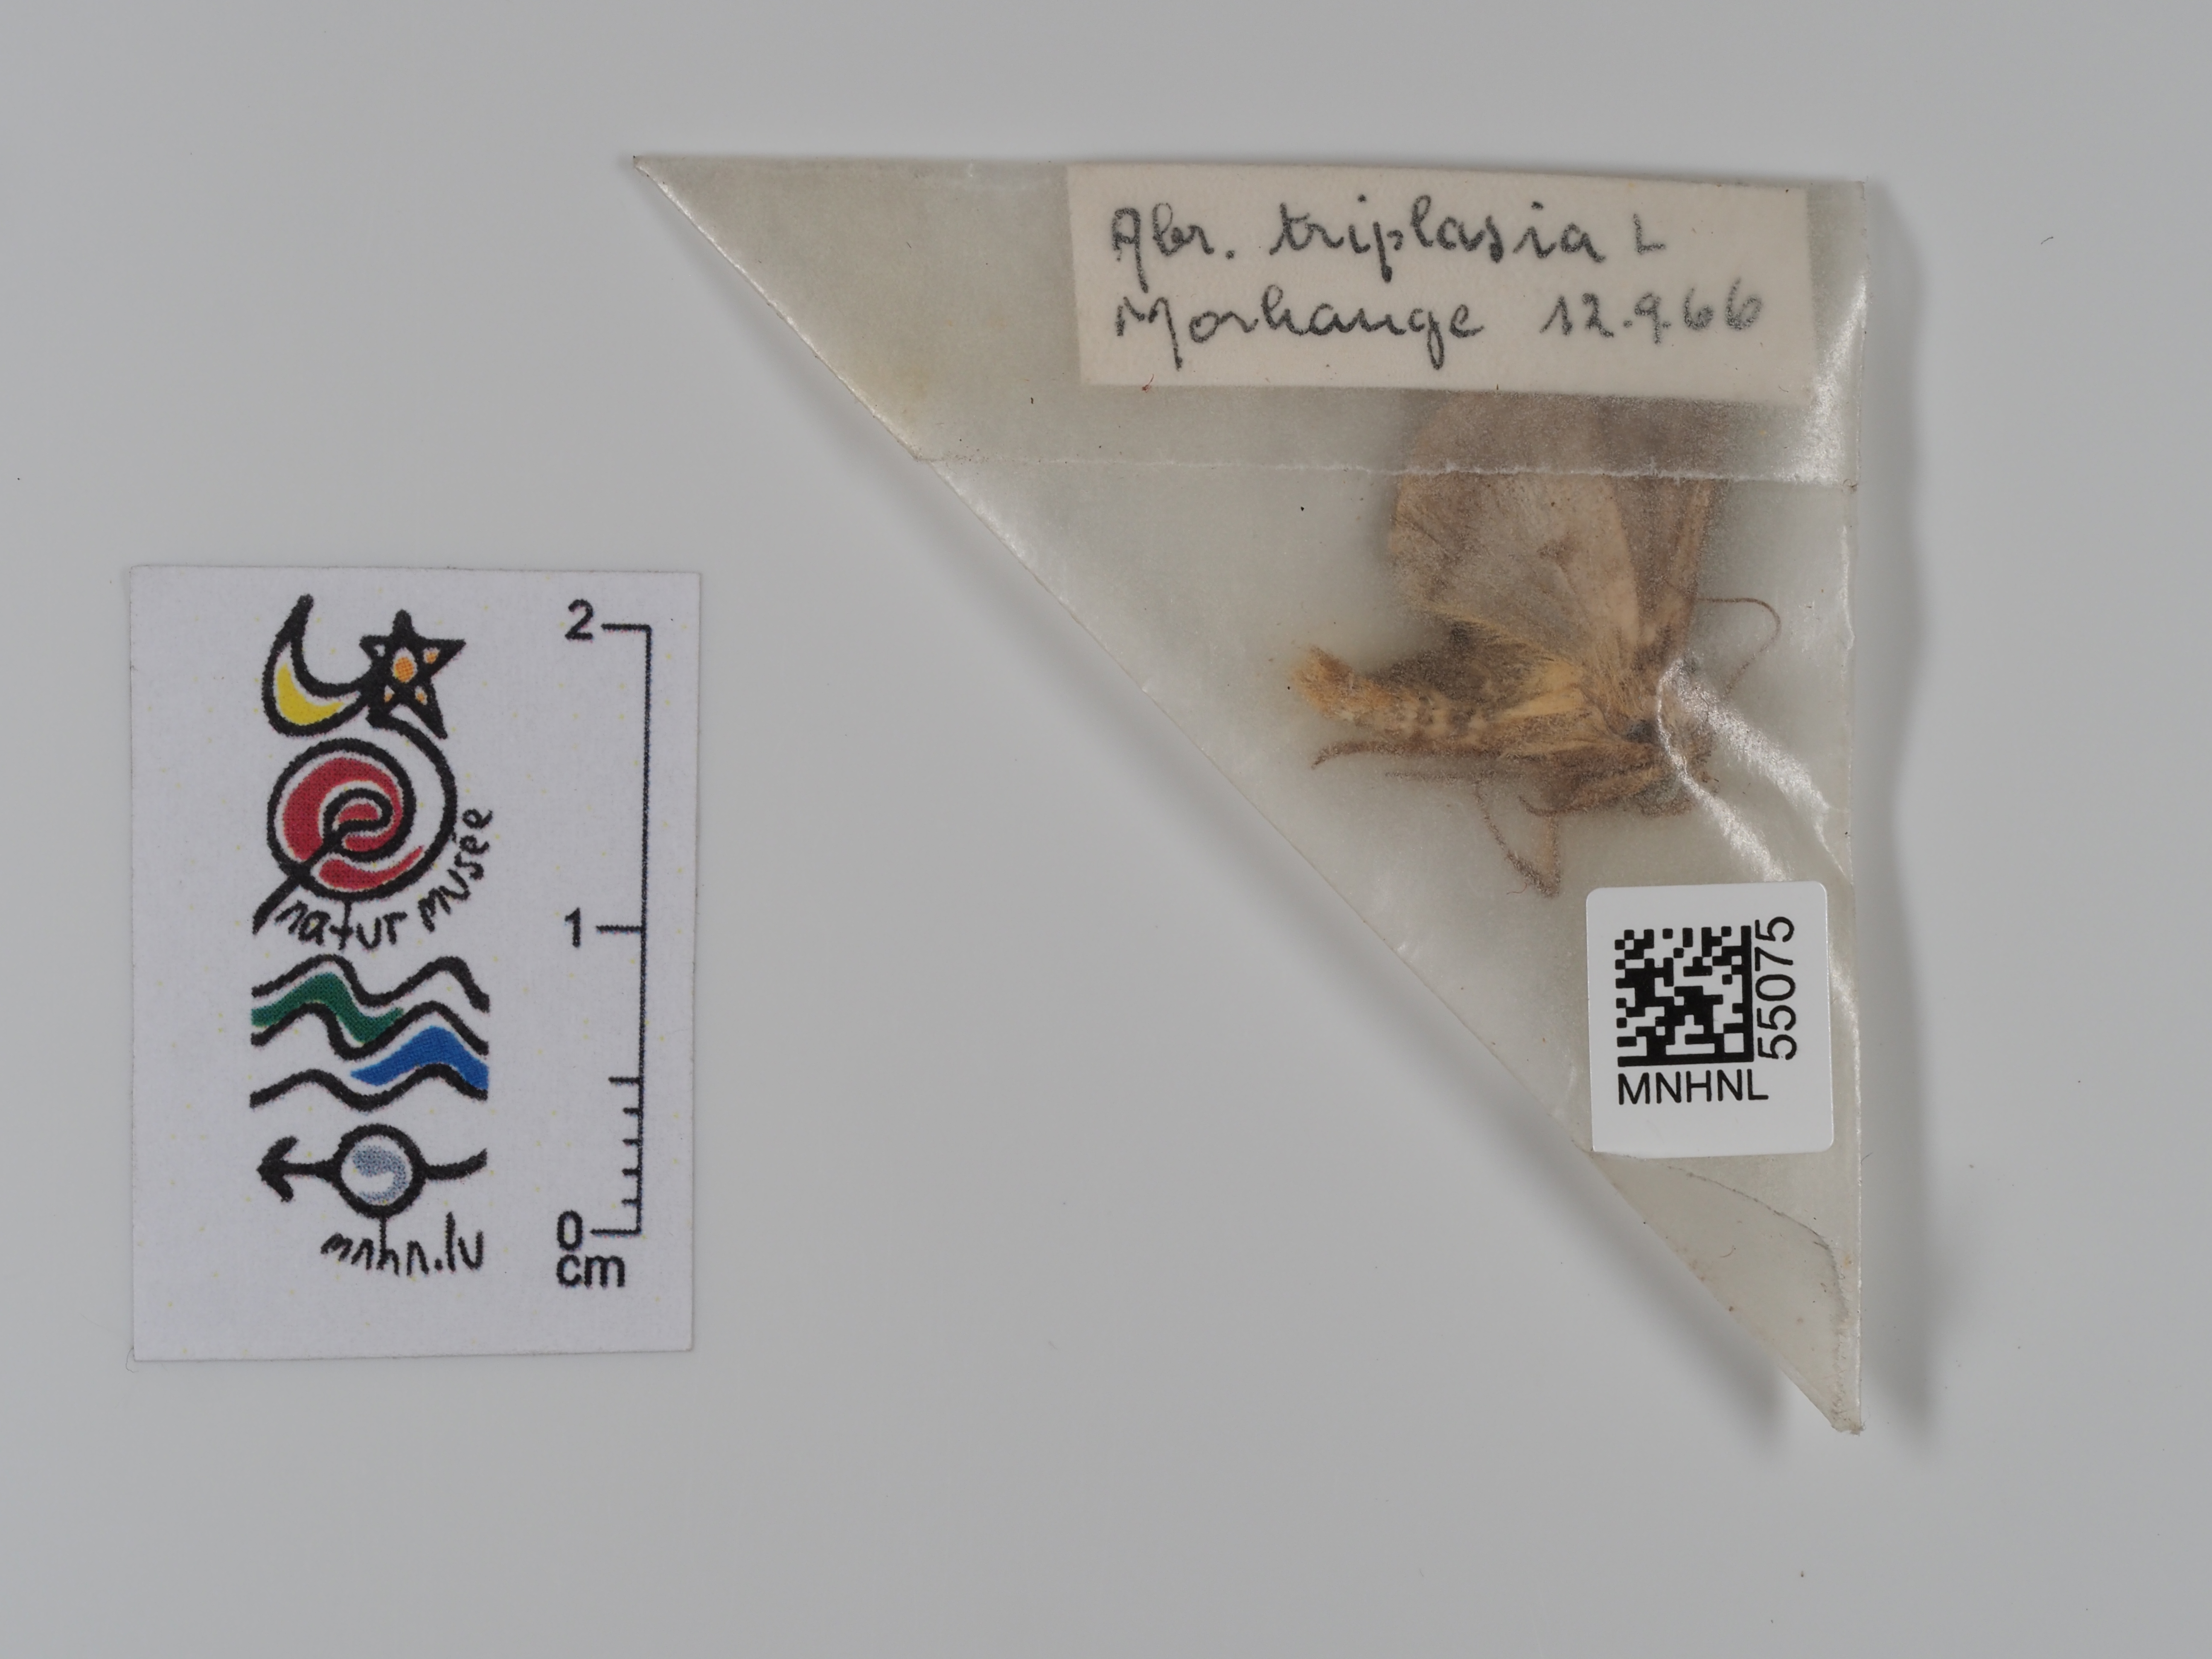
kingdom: Animalia
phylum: Arthropoda
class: Insecta
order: Lepidoptera
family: Noctuidae
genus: Abrostola
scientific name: Abrostola triplasia
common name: Dark spectacle
